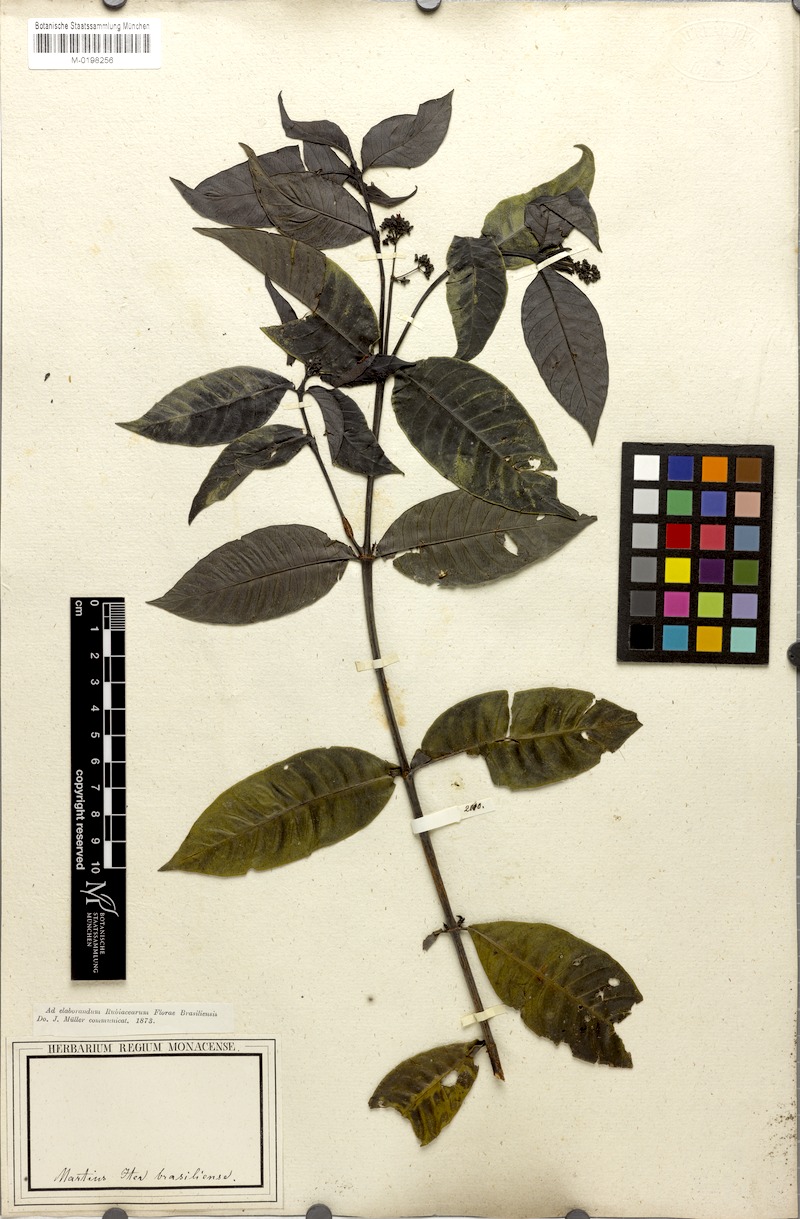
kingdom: Plantae
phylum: Tracheophyta
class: Magnoliopsida
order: Gentianales
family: Rubiaceae
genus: Psychotria
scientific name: Psychotria Mapouria lurida
